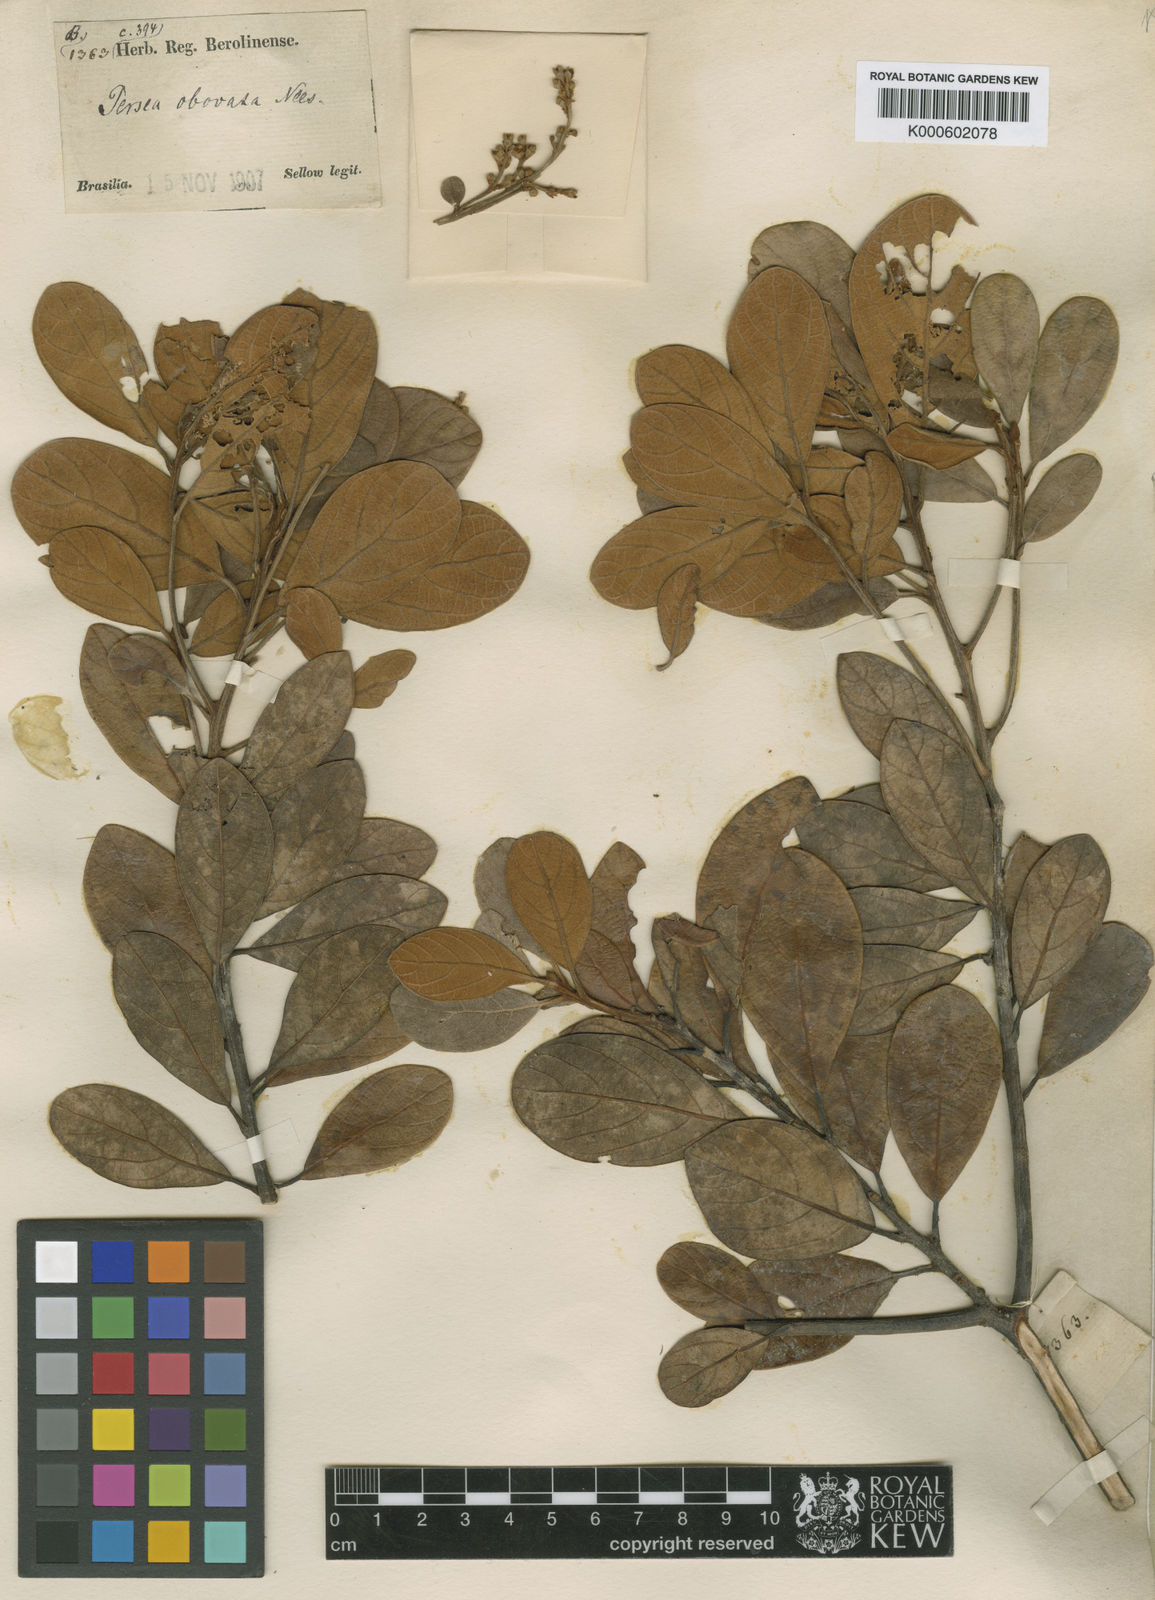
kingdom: Plantae
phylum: Tracheophyta
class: Magnoliopsida
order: Laurales
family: Lauraceae
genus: Persea
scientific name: Persea obovata
